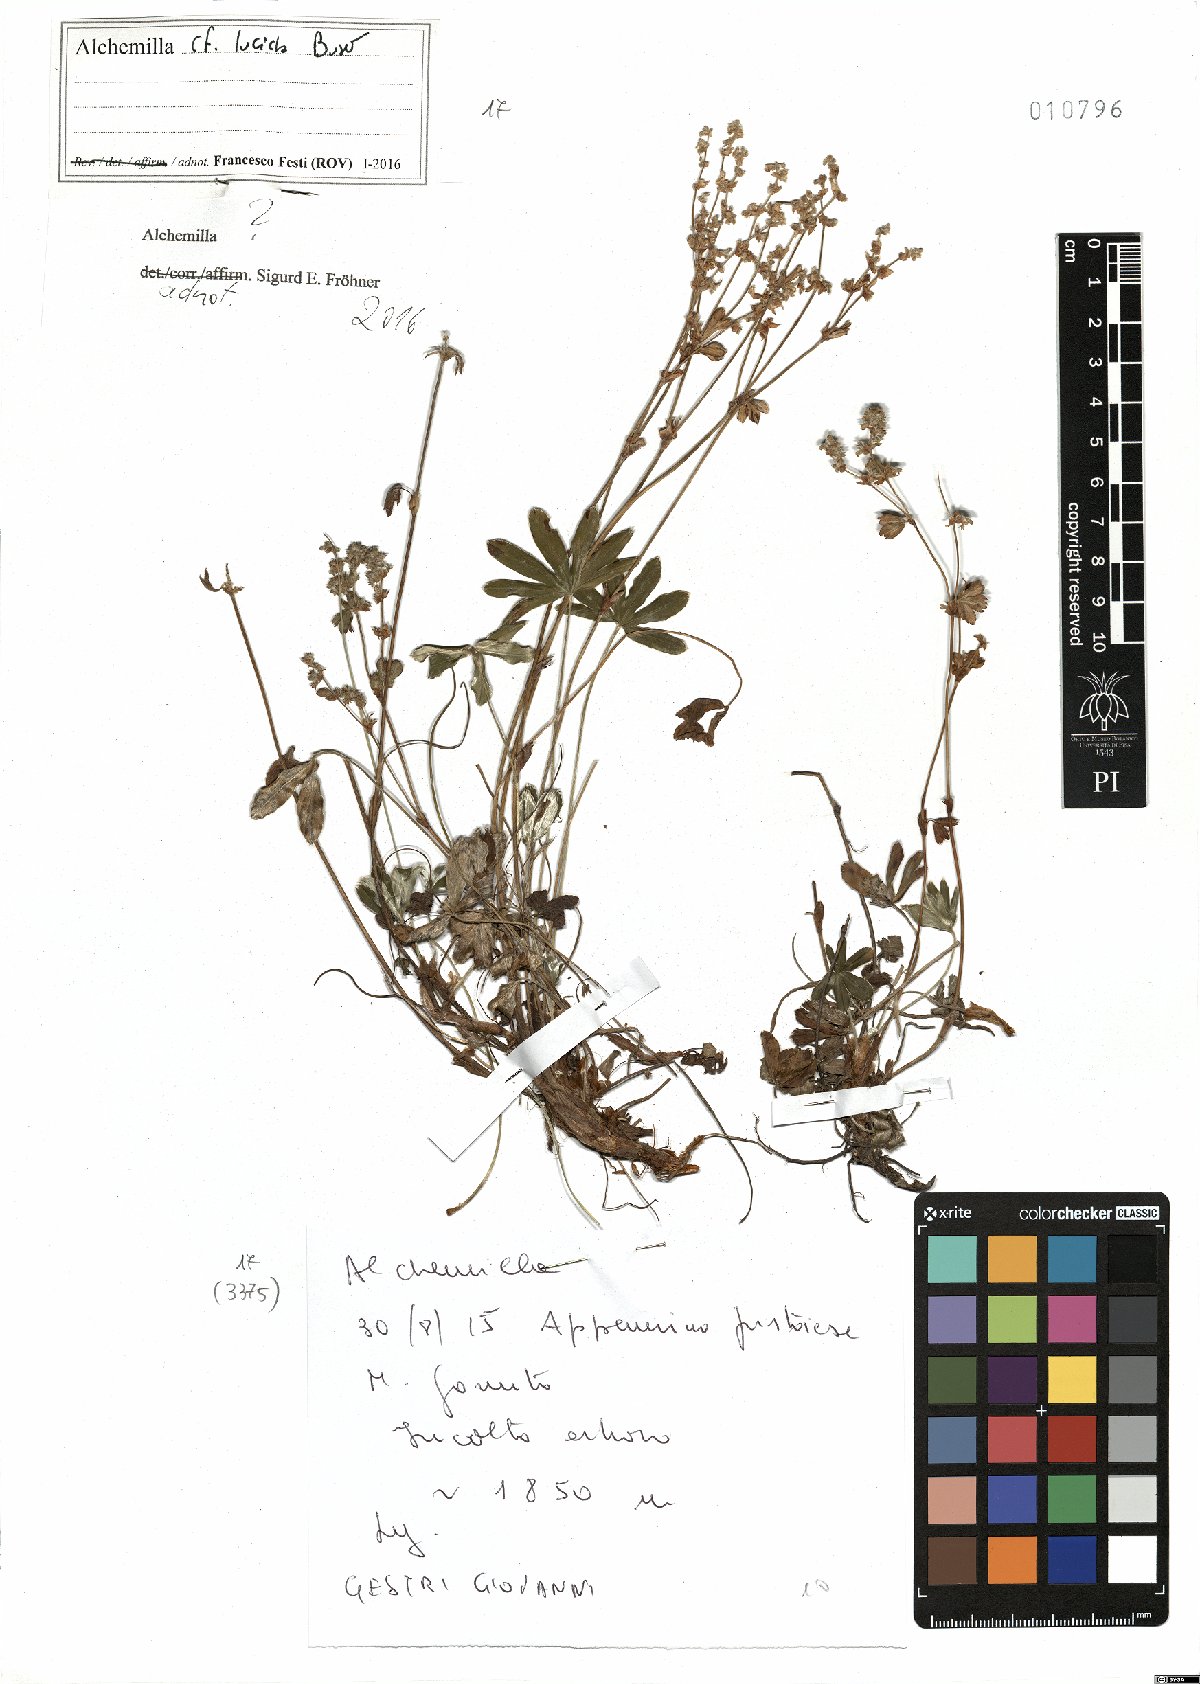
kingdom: Plantae
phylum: Tracheophyta
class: Magnoliopsida
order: Rosales
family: Rosaceae
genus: Alchemilla
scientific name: Alchemilla
